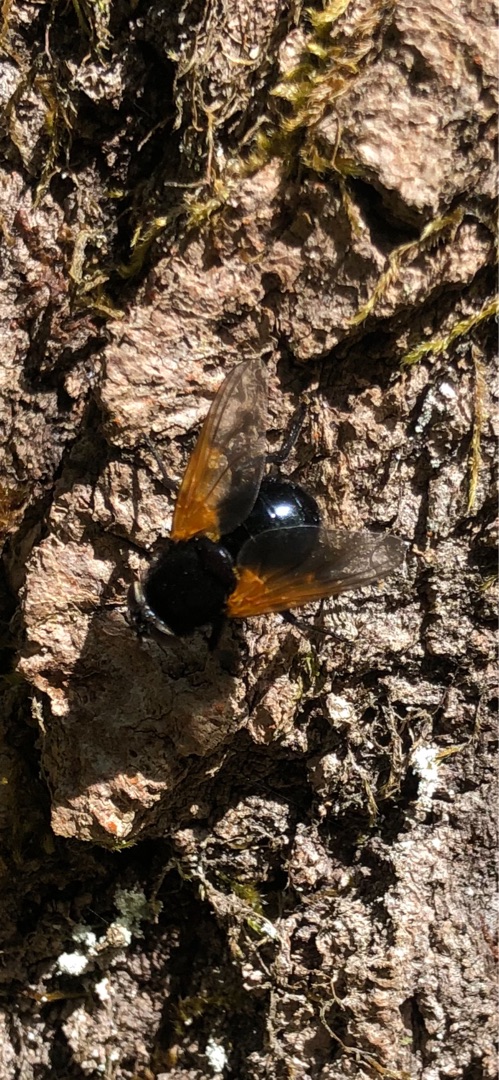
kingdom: Animalia
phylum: Arthropoda
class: Insecta
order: Diptera
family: Muscidae
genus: Mesembrina
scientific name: Mesembrina meridiana
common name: Gulvinget flue
